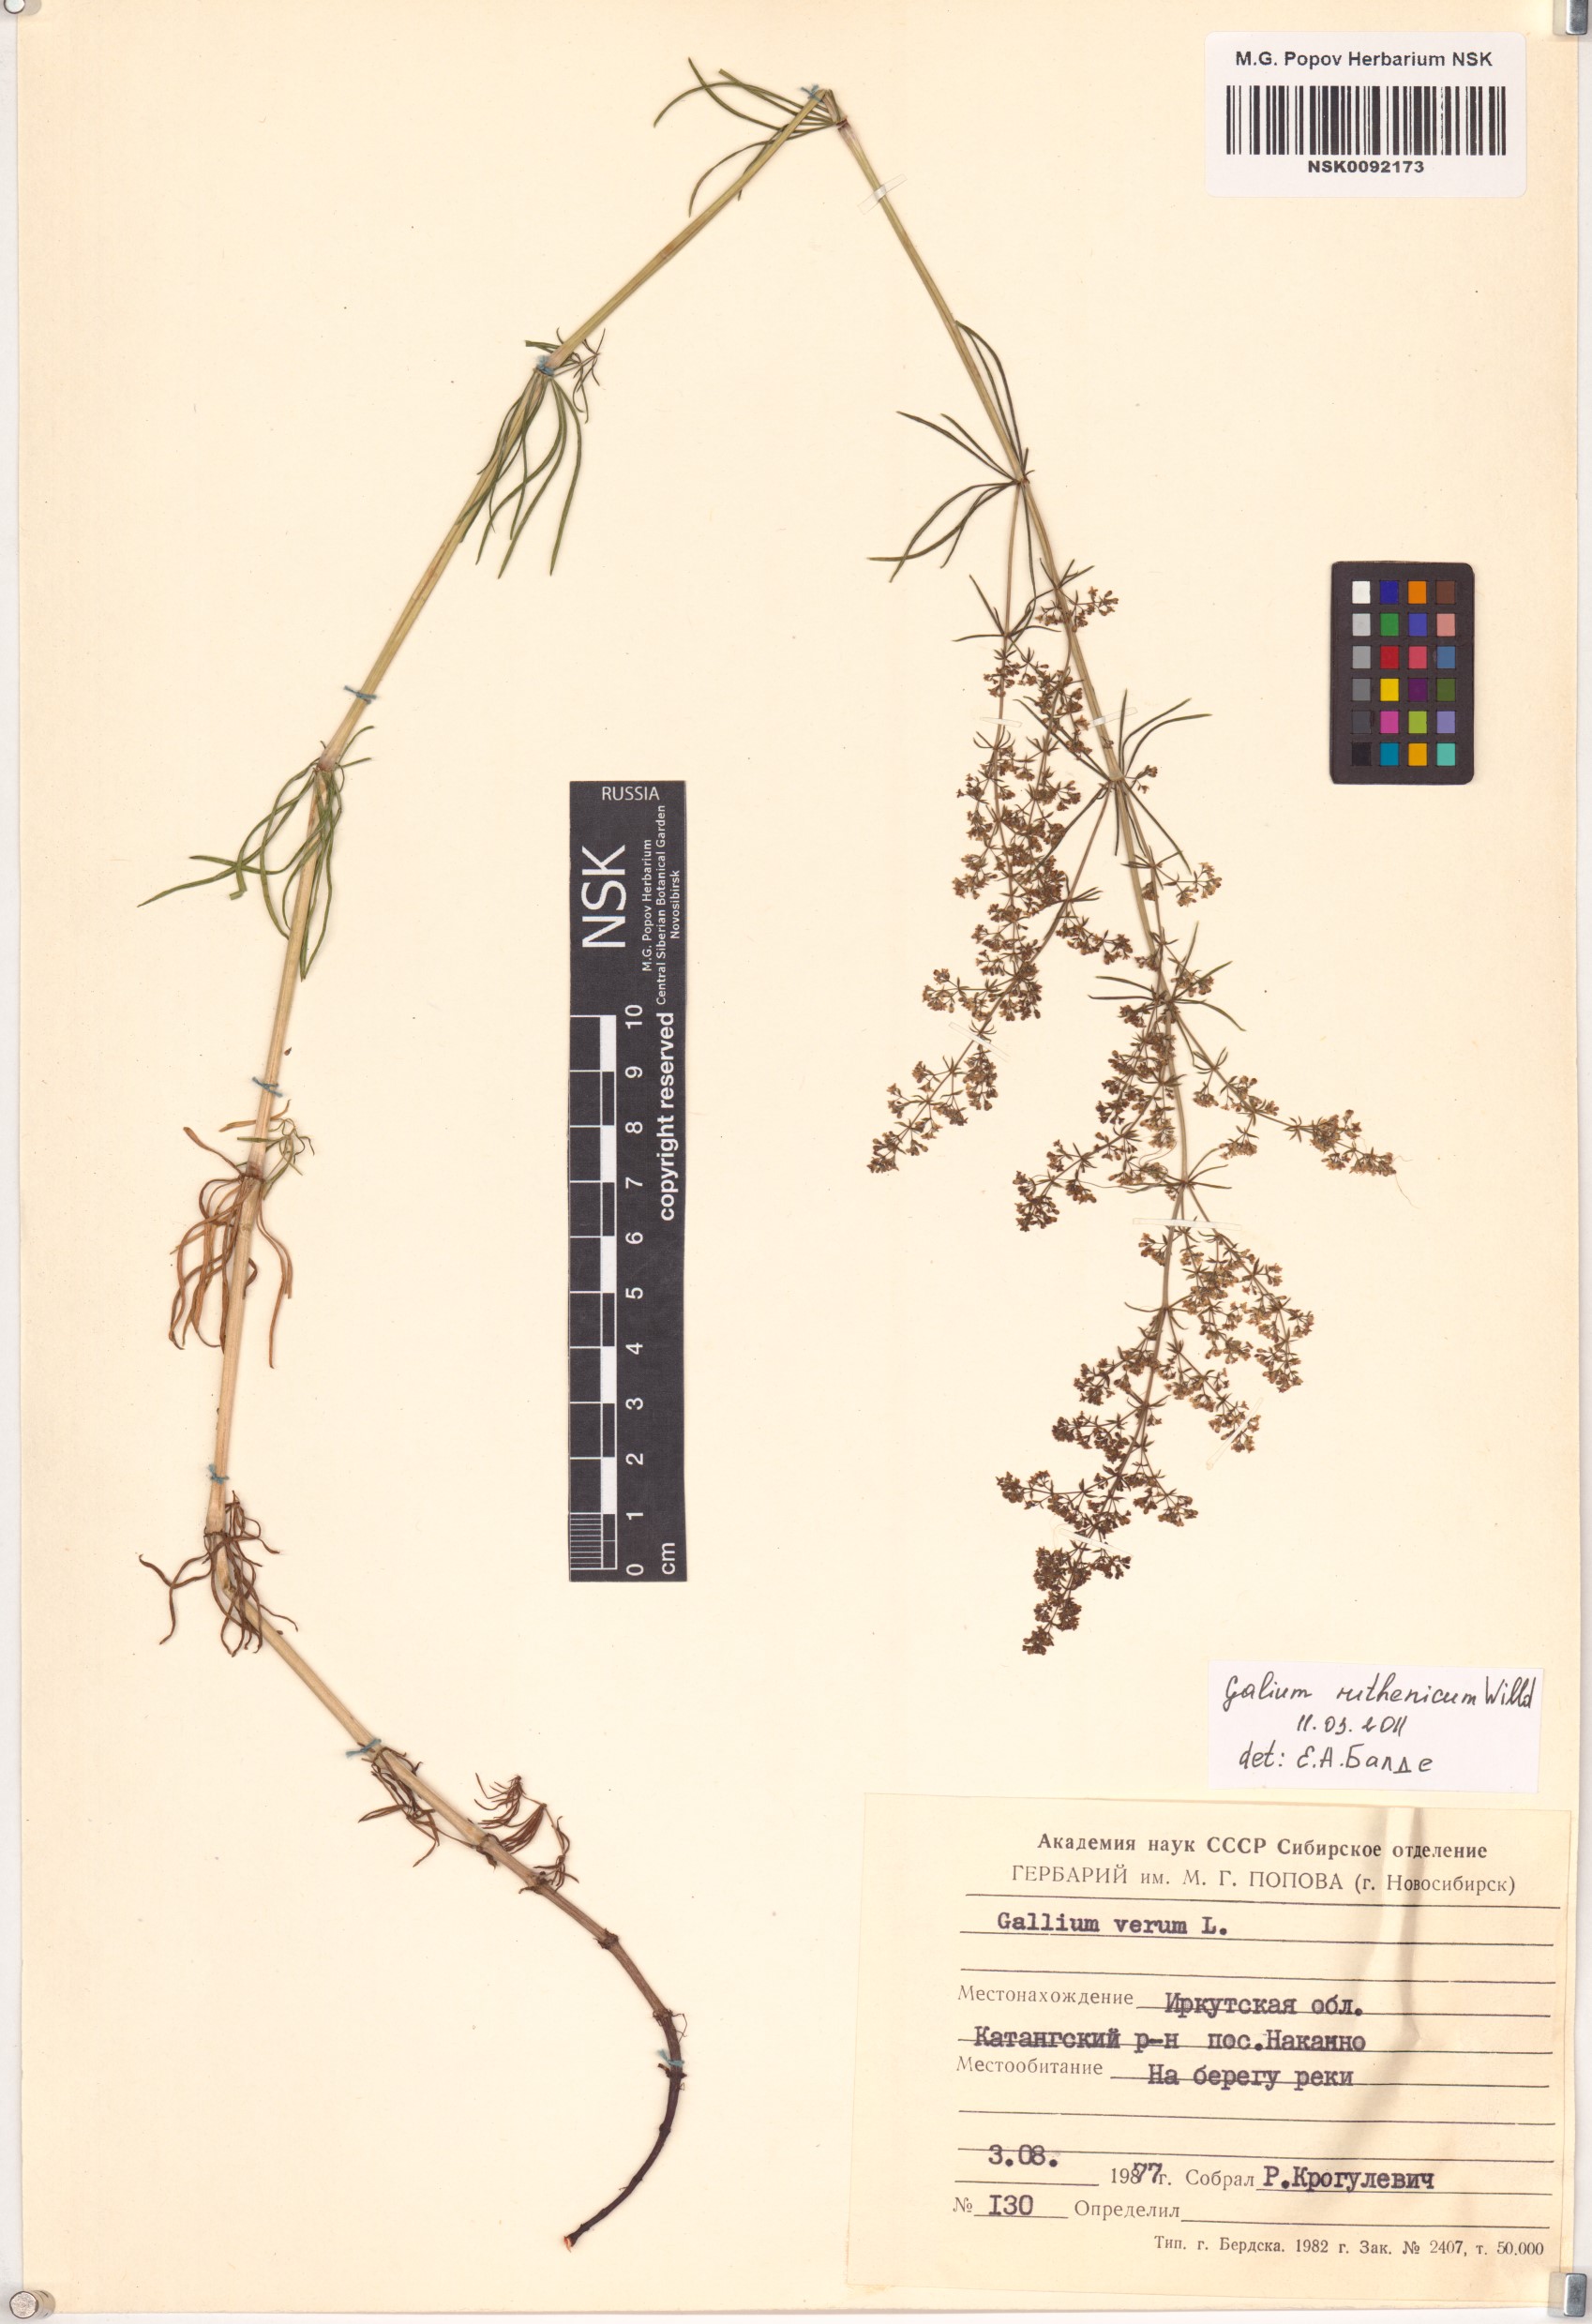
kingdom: Plantae
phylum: Tracheophyta
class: Magnoliopsida
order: Gentianales
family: Rubiaceae
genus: Galium
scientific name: Galium verum
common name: Lady's bedstraw
